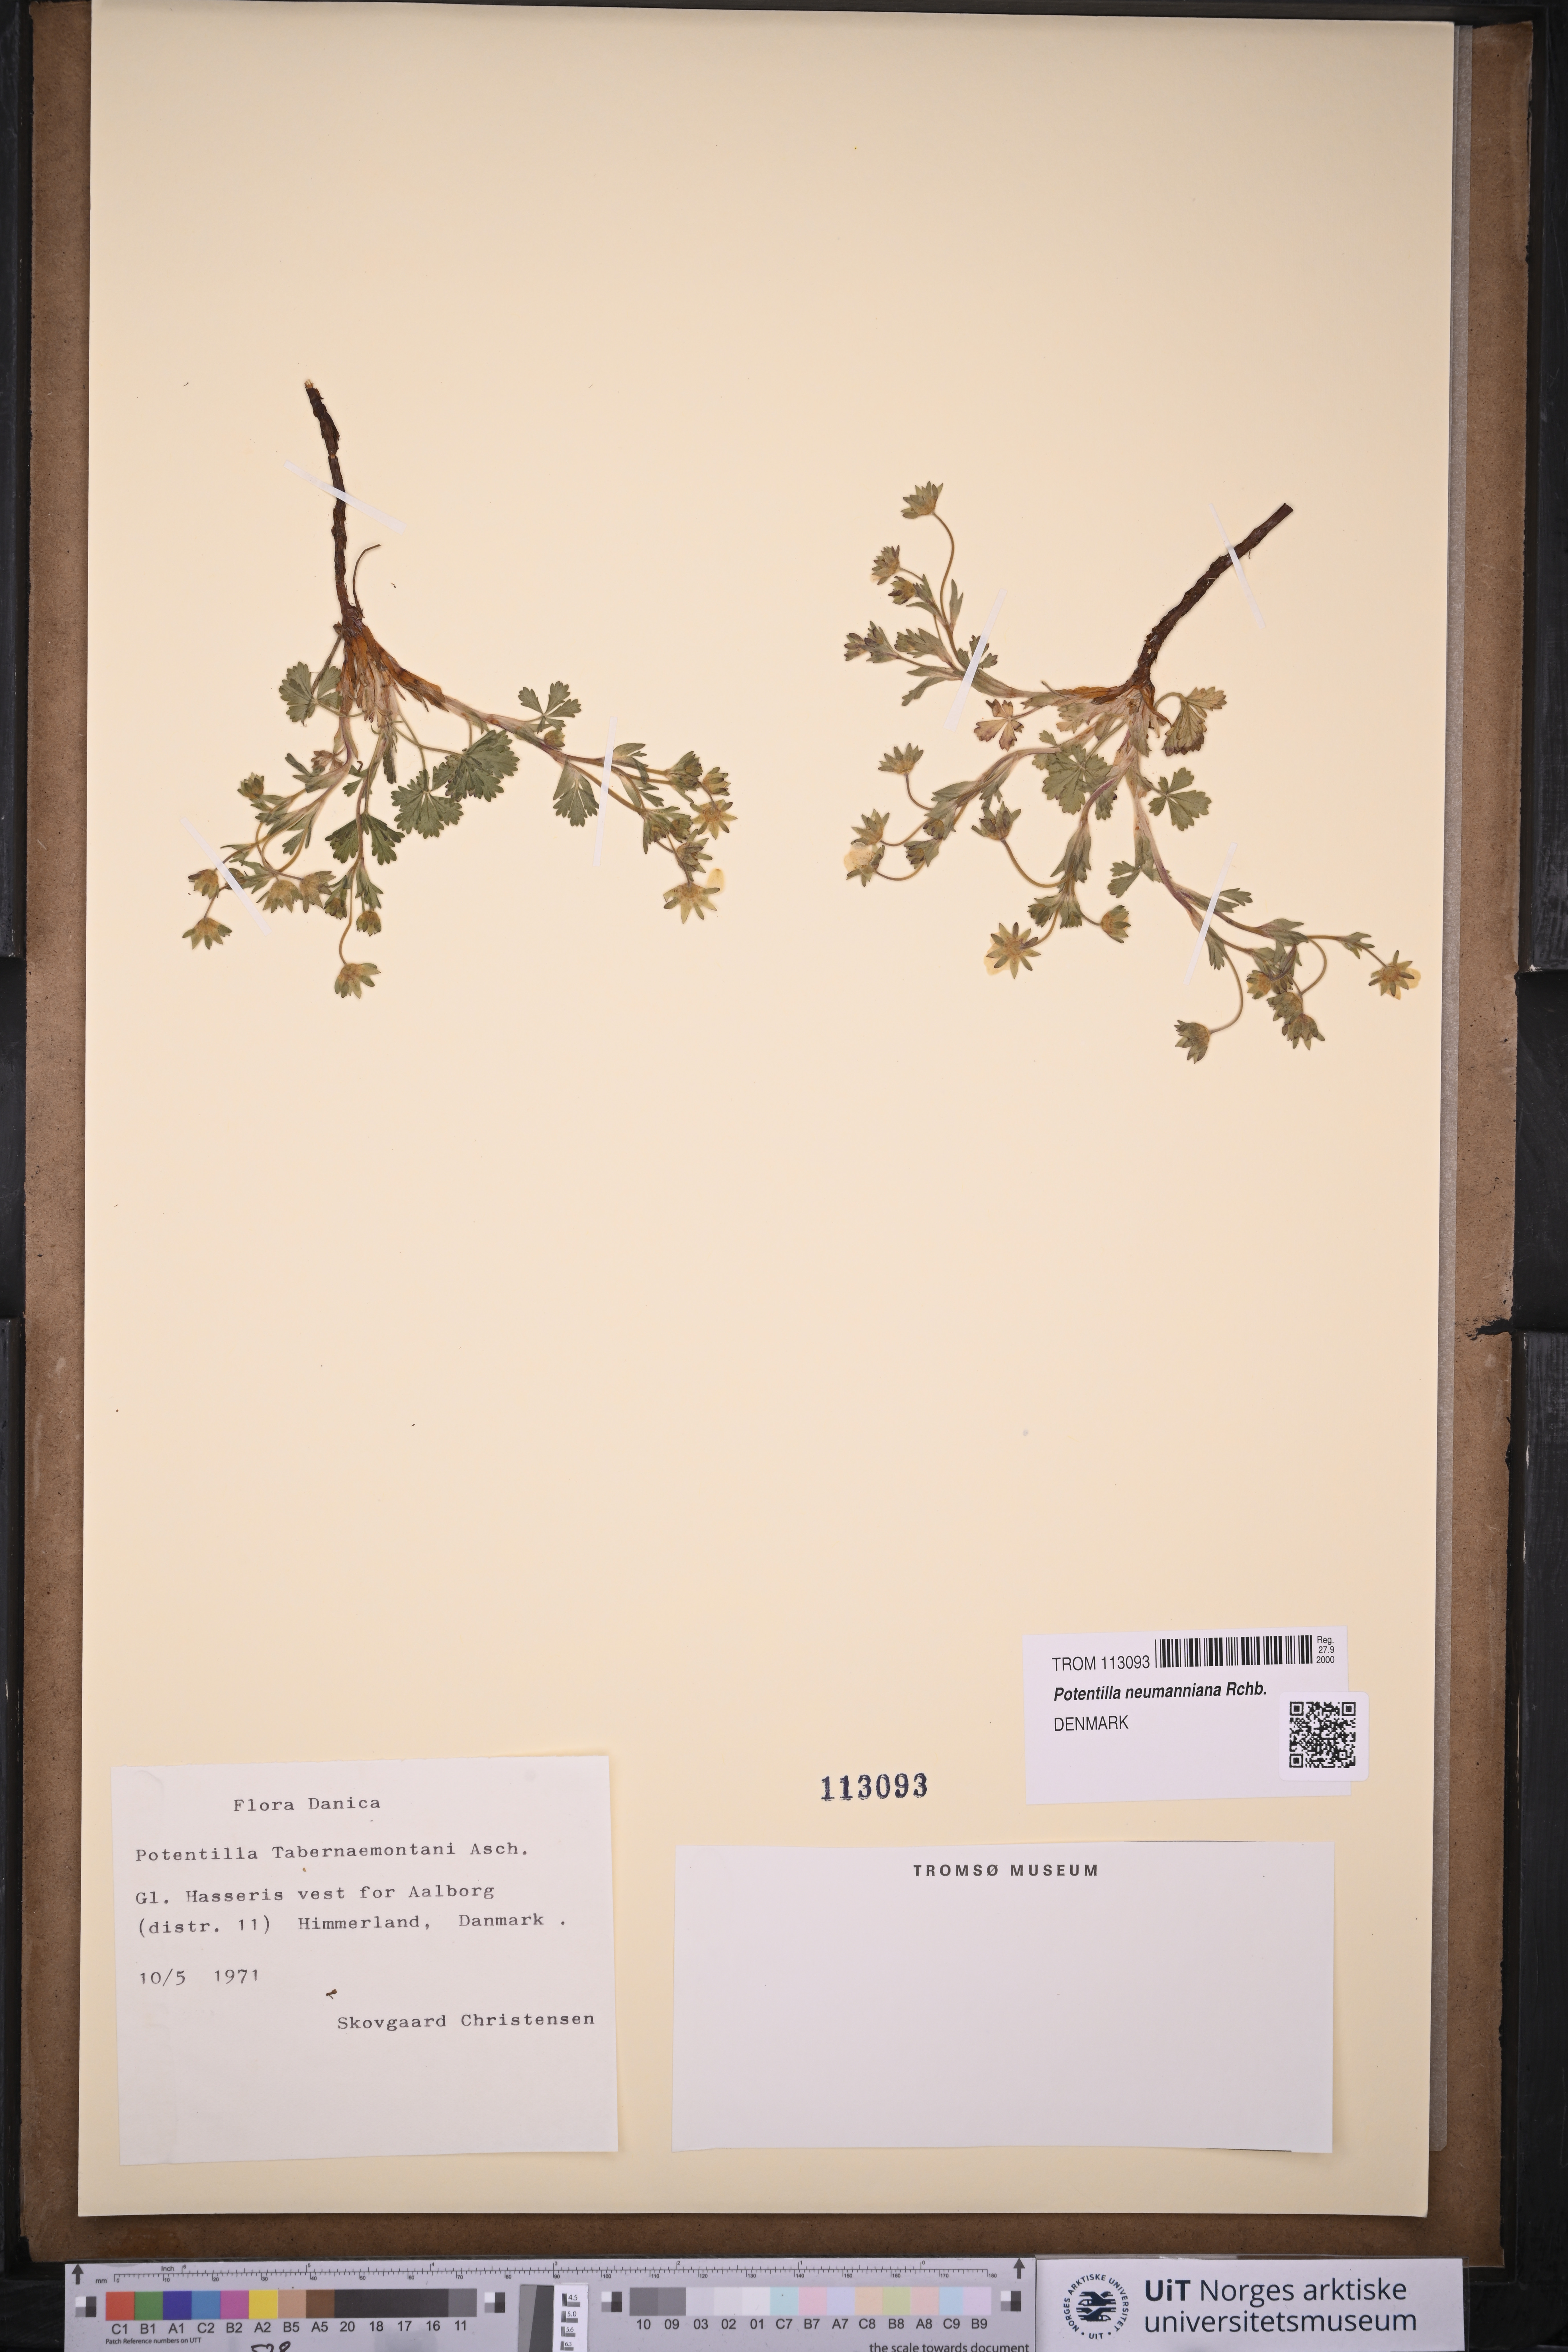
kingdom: Plantae
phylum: Tracheophyta
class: Magnoliopsida
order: Rosales
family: Rosaceae
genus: Potentilla
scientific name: Potentilla verna
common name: Spring cinquefoil
